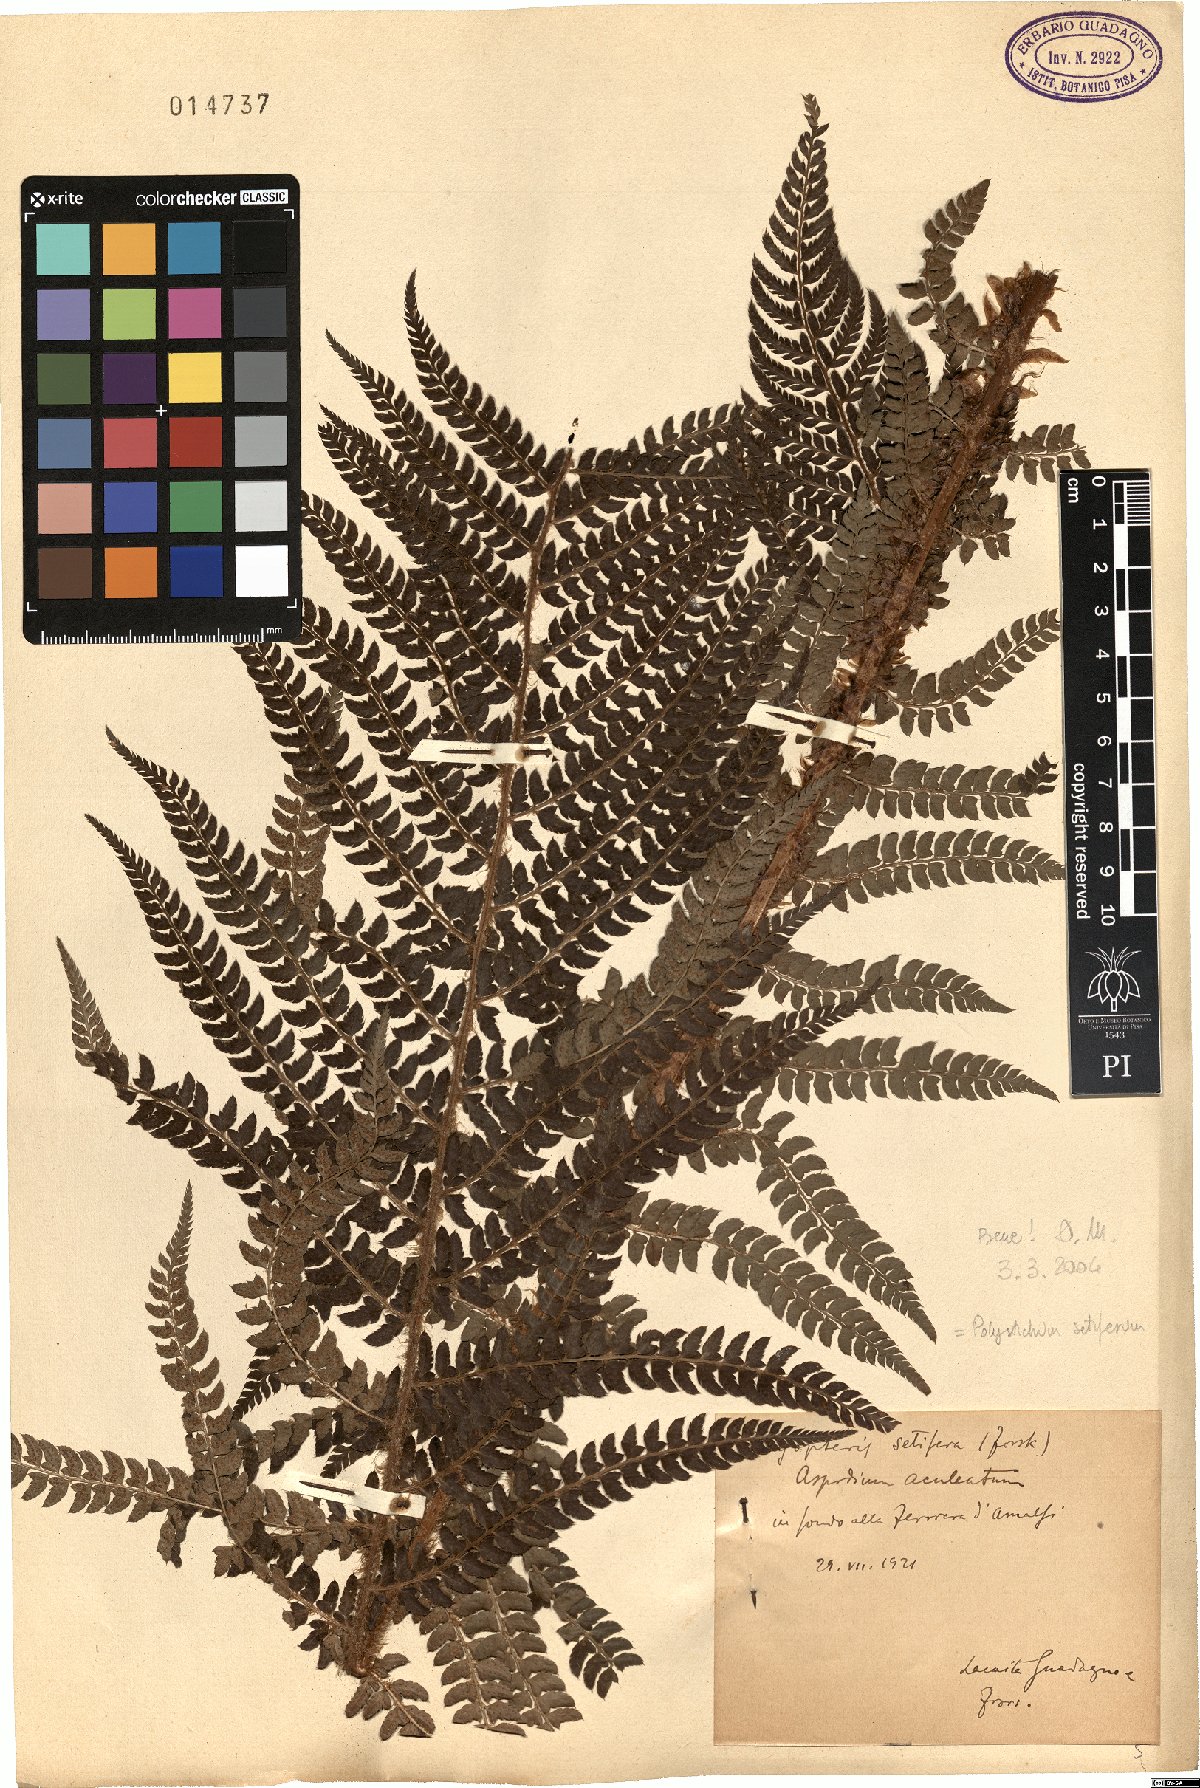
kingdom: Plantae
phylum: Tracheophyta
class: Polypodiopsida
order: Polypodiales
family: Dryopteridaceae
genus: Polystichum
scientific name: Polystichum setiferum
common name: Soft shield-fern
